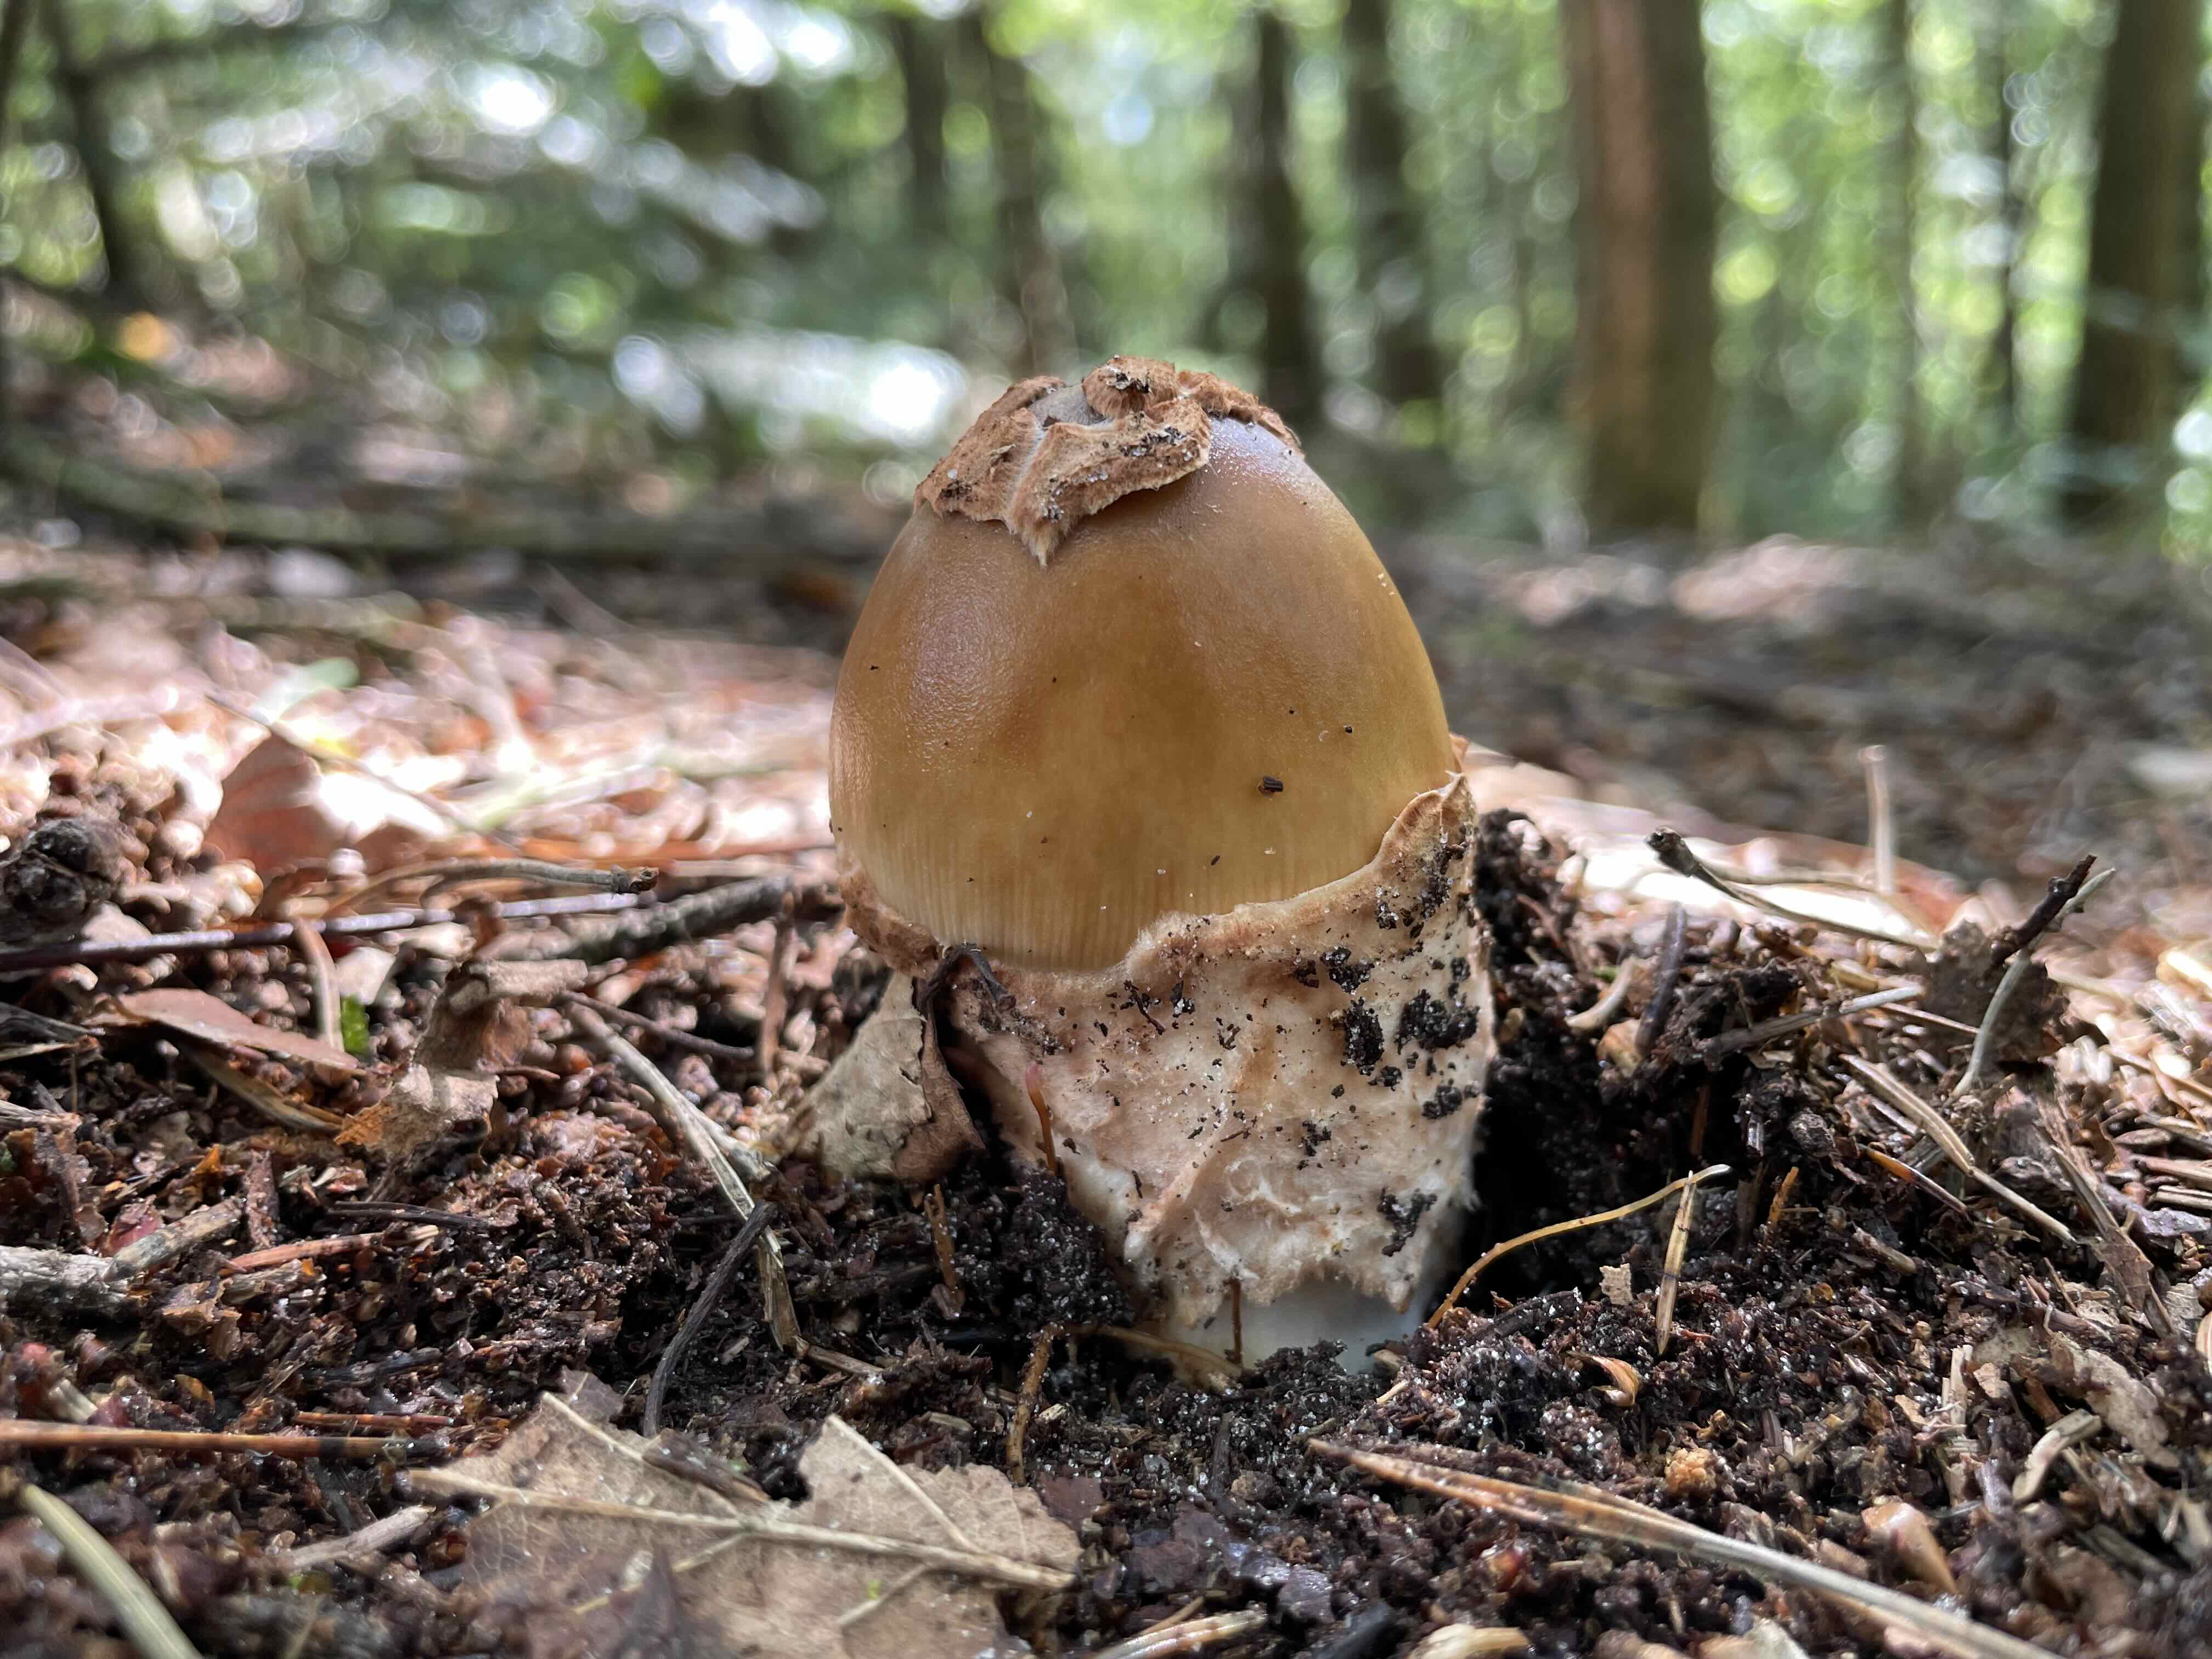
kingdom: Fungi
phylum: Basidiomycota
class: Agaricomycetes
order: Agaricales
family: Amanitaceae
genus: Amanita
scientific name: Amanita fulva
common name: brun kam-fluesvamp
